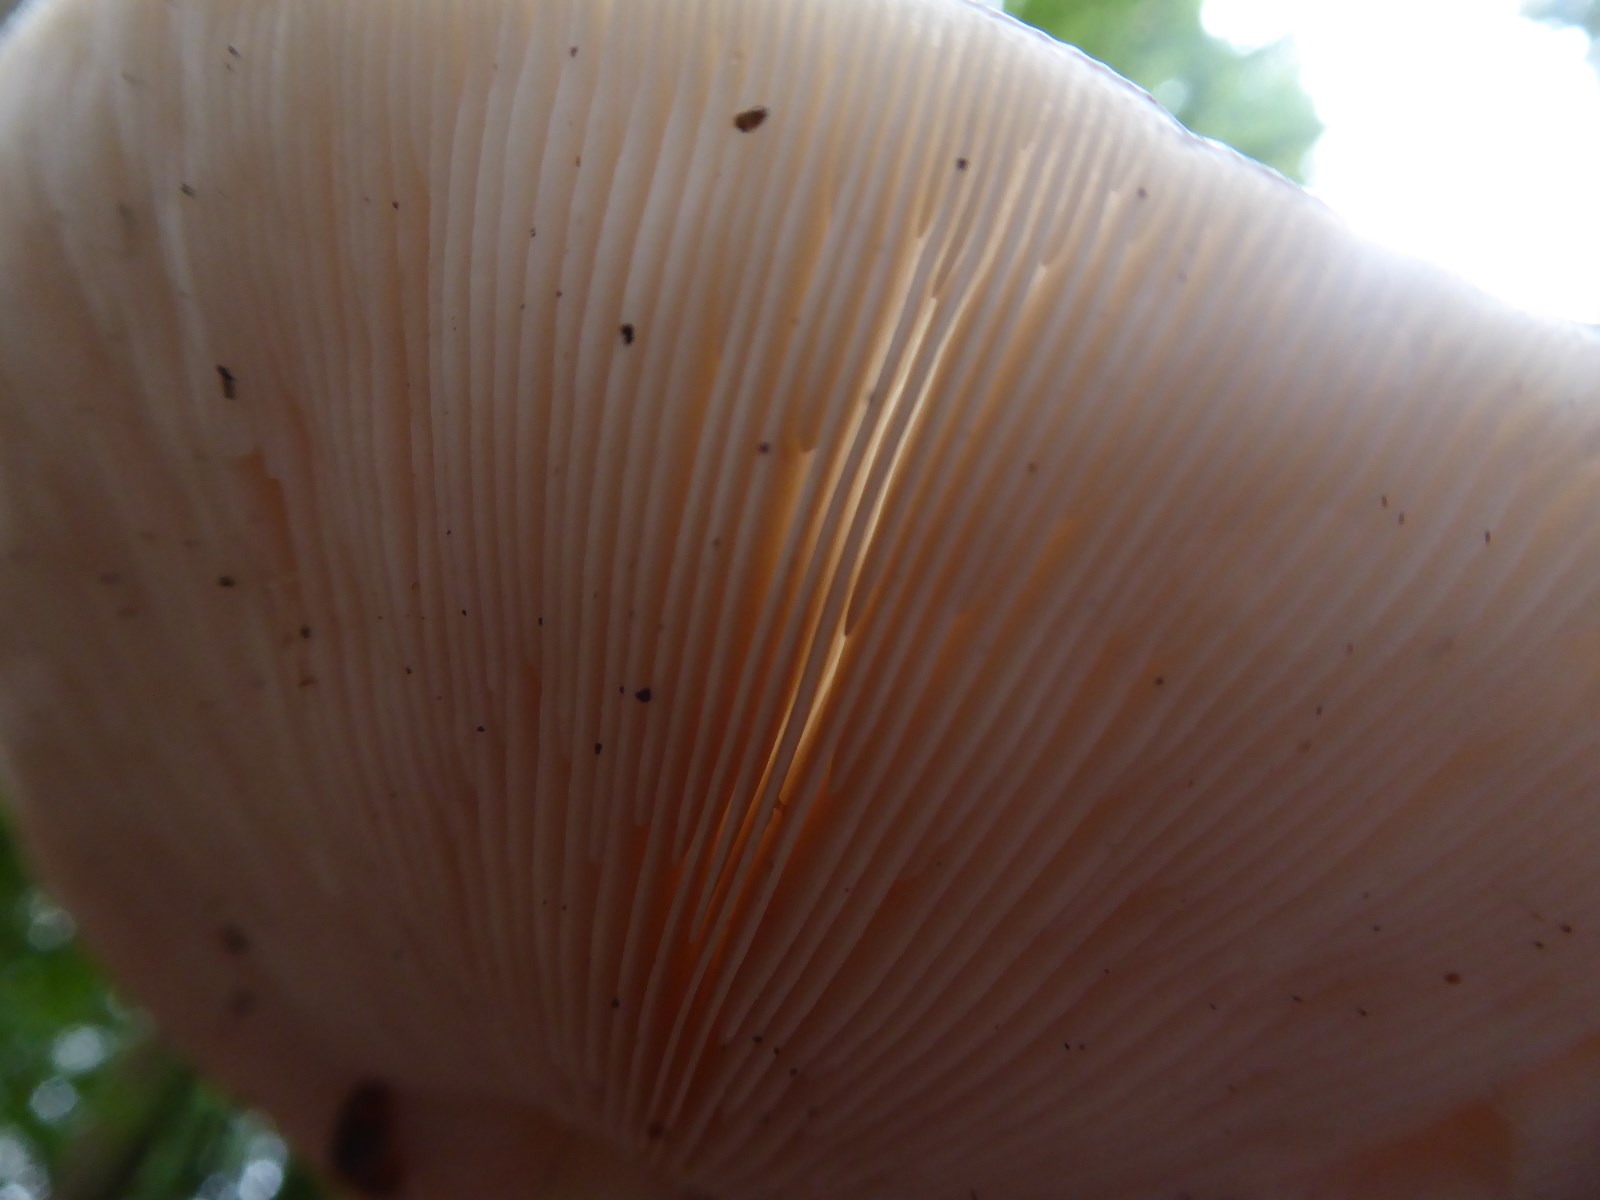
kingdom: Fungi
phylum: Basidiomycota
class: Agaricomycetes
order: Agaricales
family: Pluteaceae
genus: Pluteus
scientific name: Pluteus cervinus
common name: sodfarvet skærmhat
